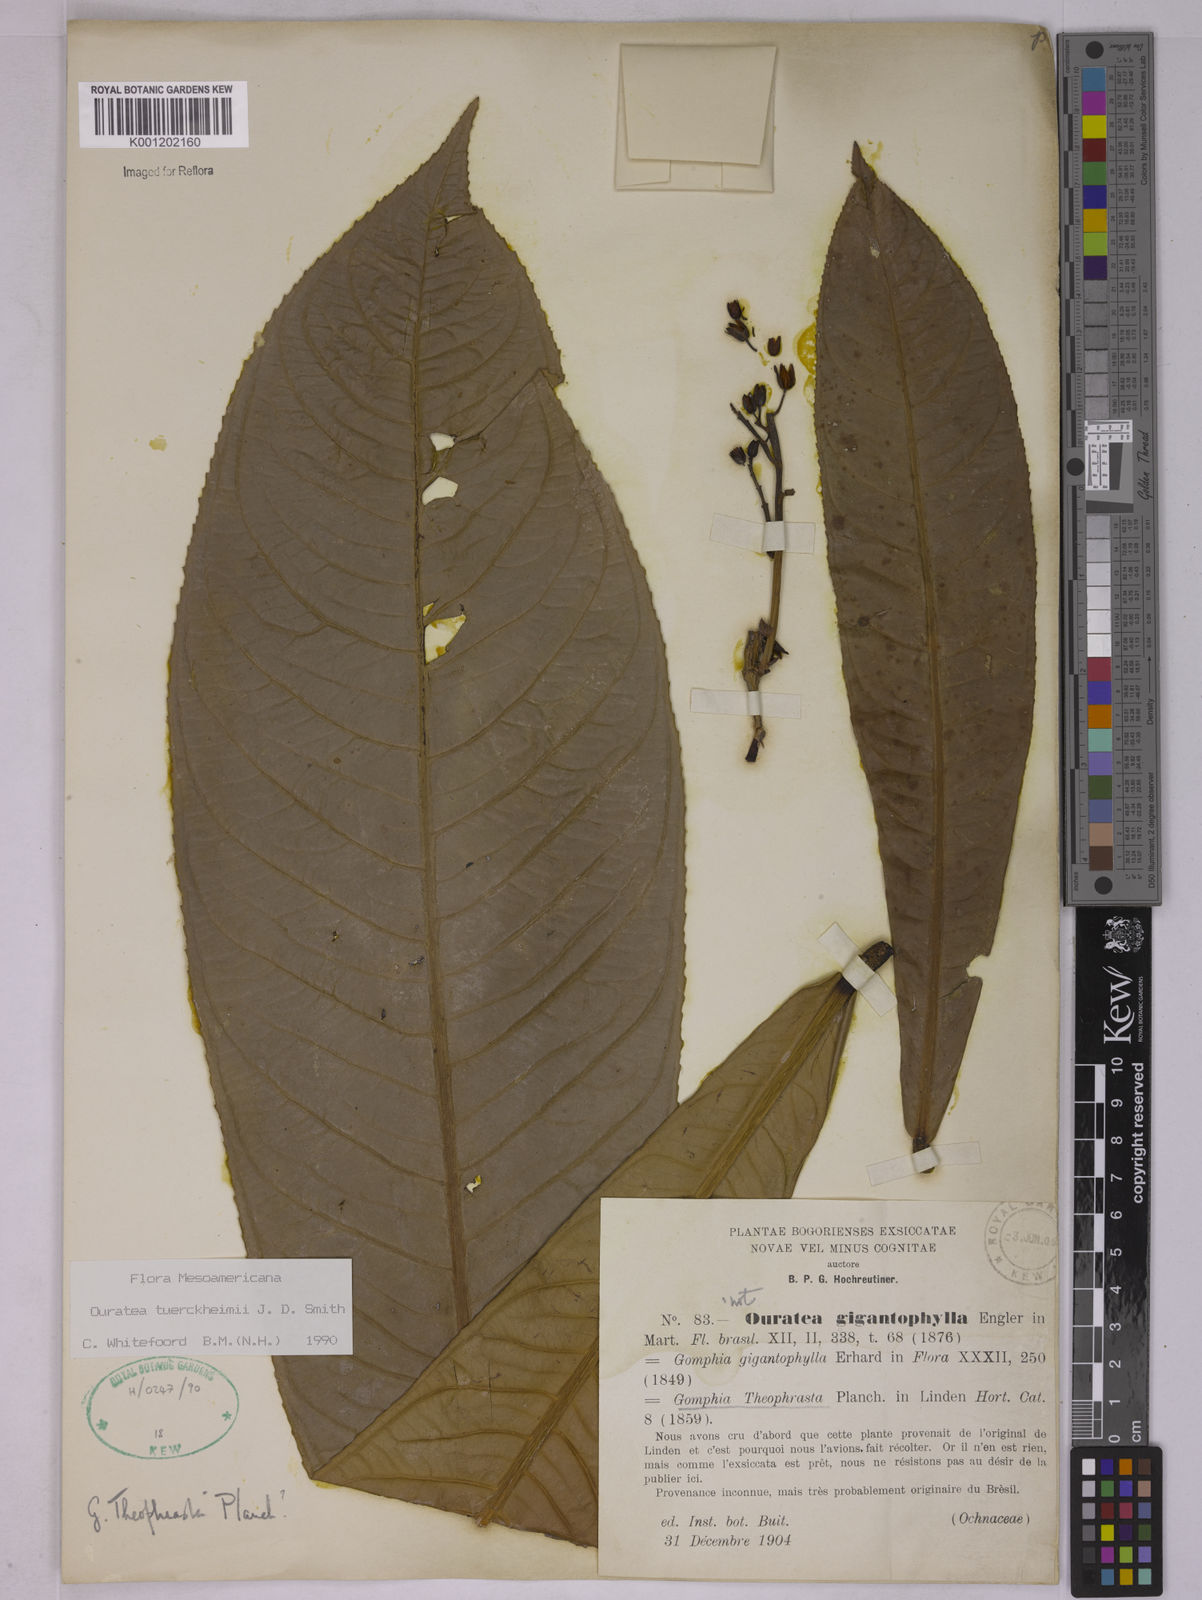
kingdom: Plantae
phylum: Tracheophyta
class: Magnoliopsida
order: Malpighiales
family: Ochnaceae
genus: Ouratea
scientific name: Ouratea theophrasta
